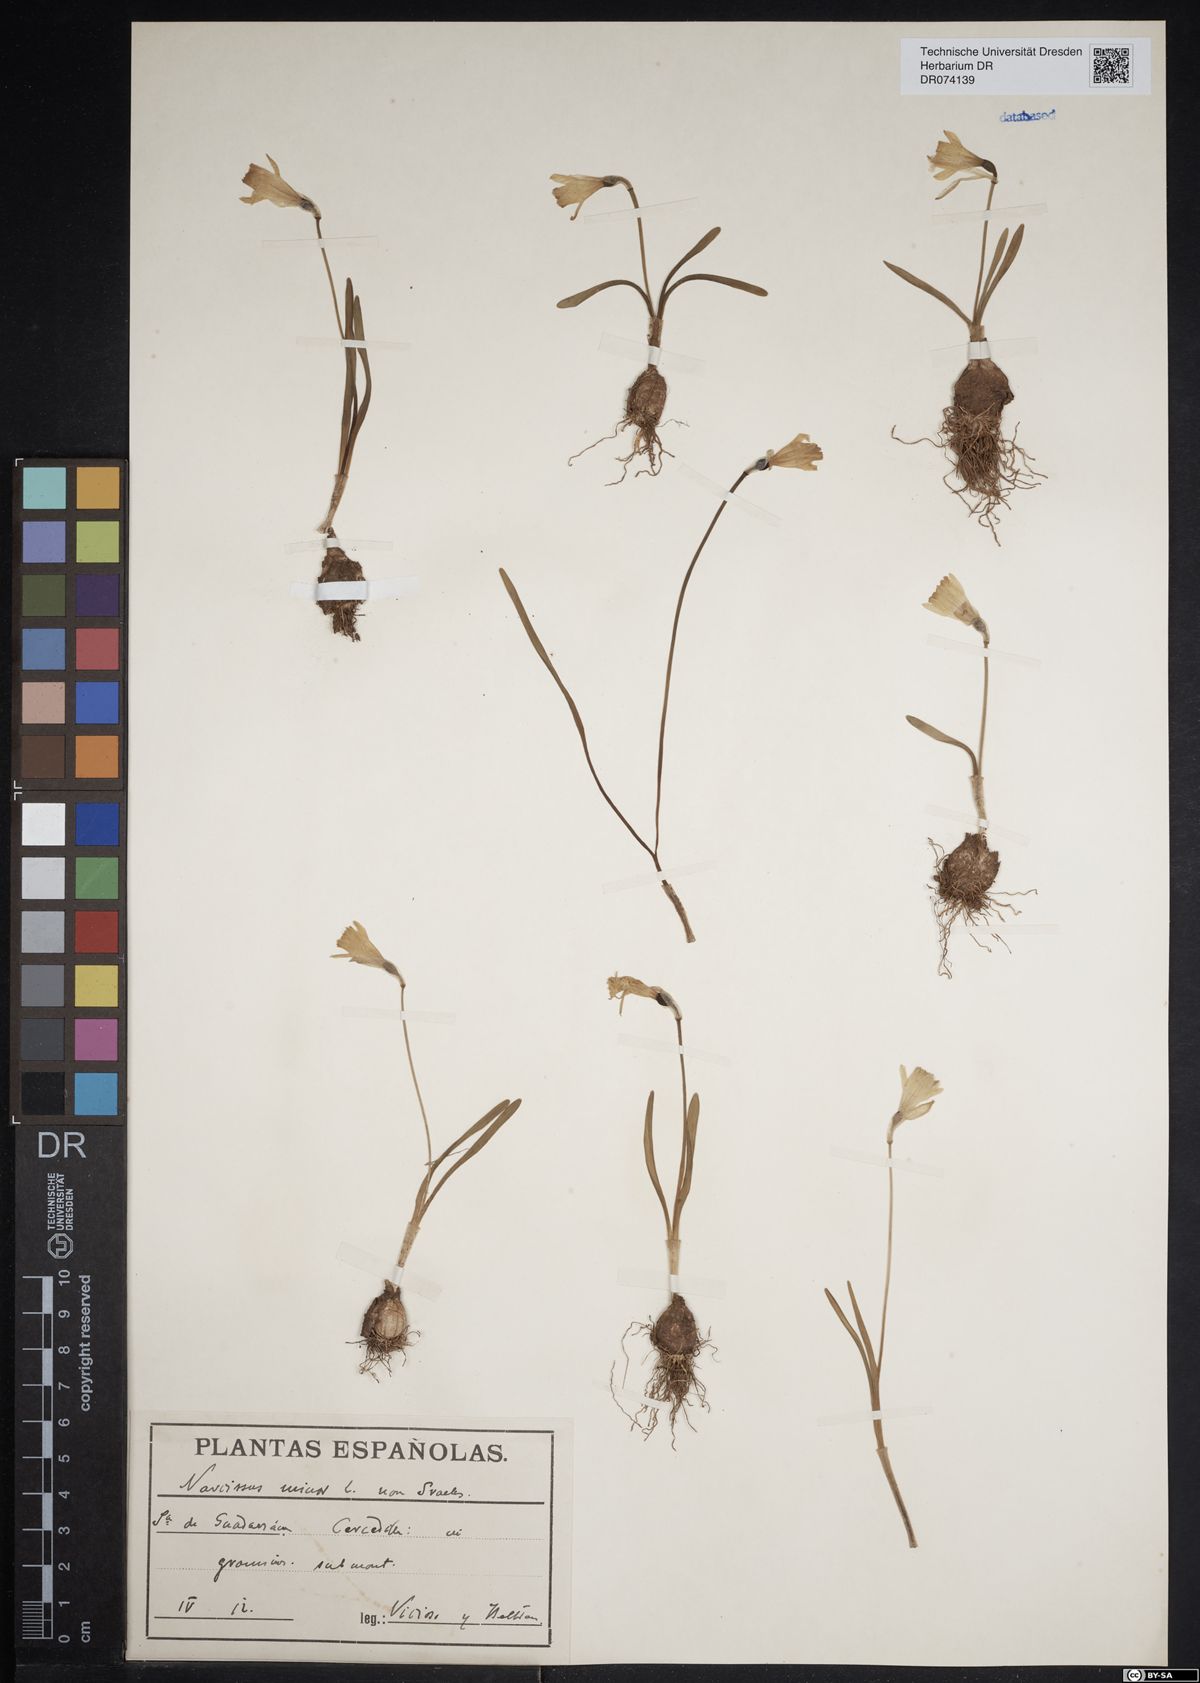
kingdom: Plantae
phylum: Tracheophyta
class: Liliopsida
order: Asparagales
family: Amaryllidaceae
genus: Narcissus
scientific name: Narcissus minor
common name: Lesser daffodil
